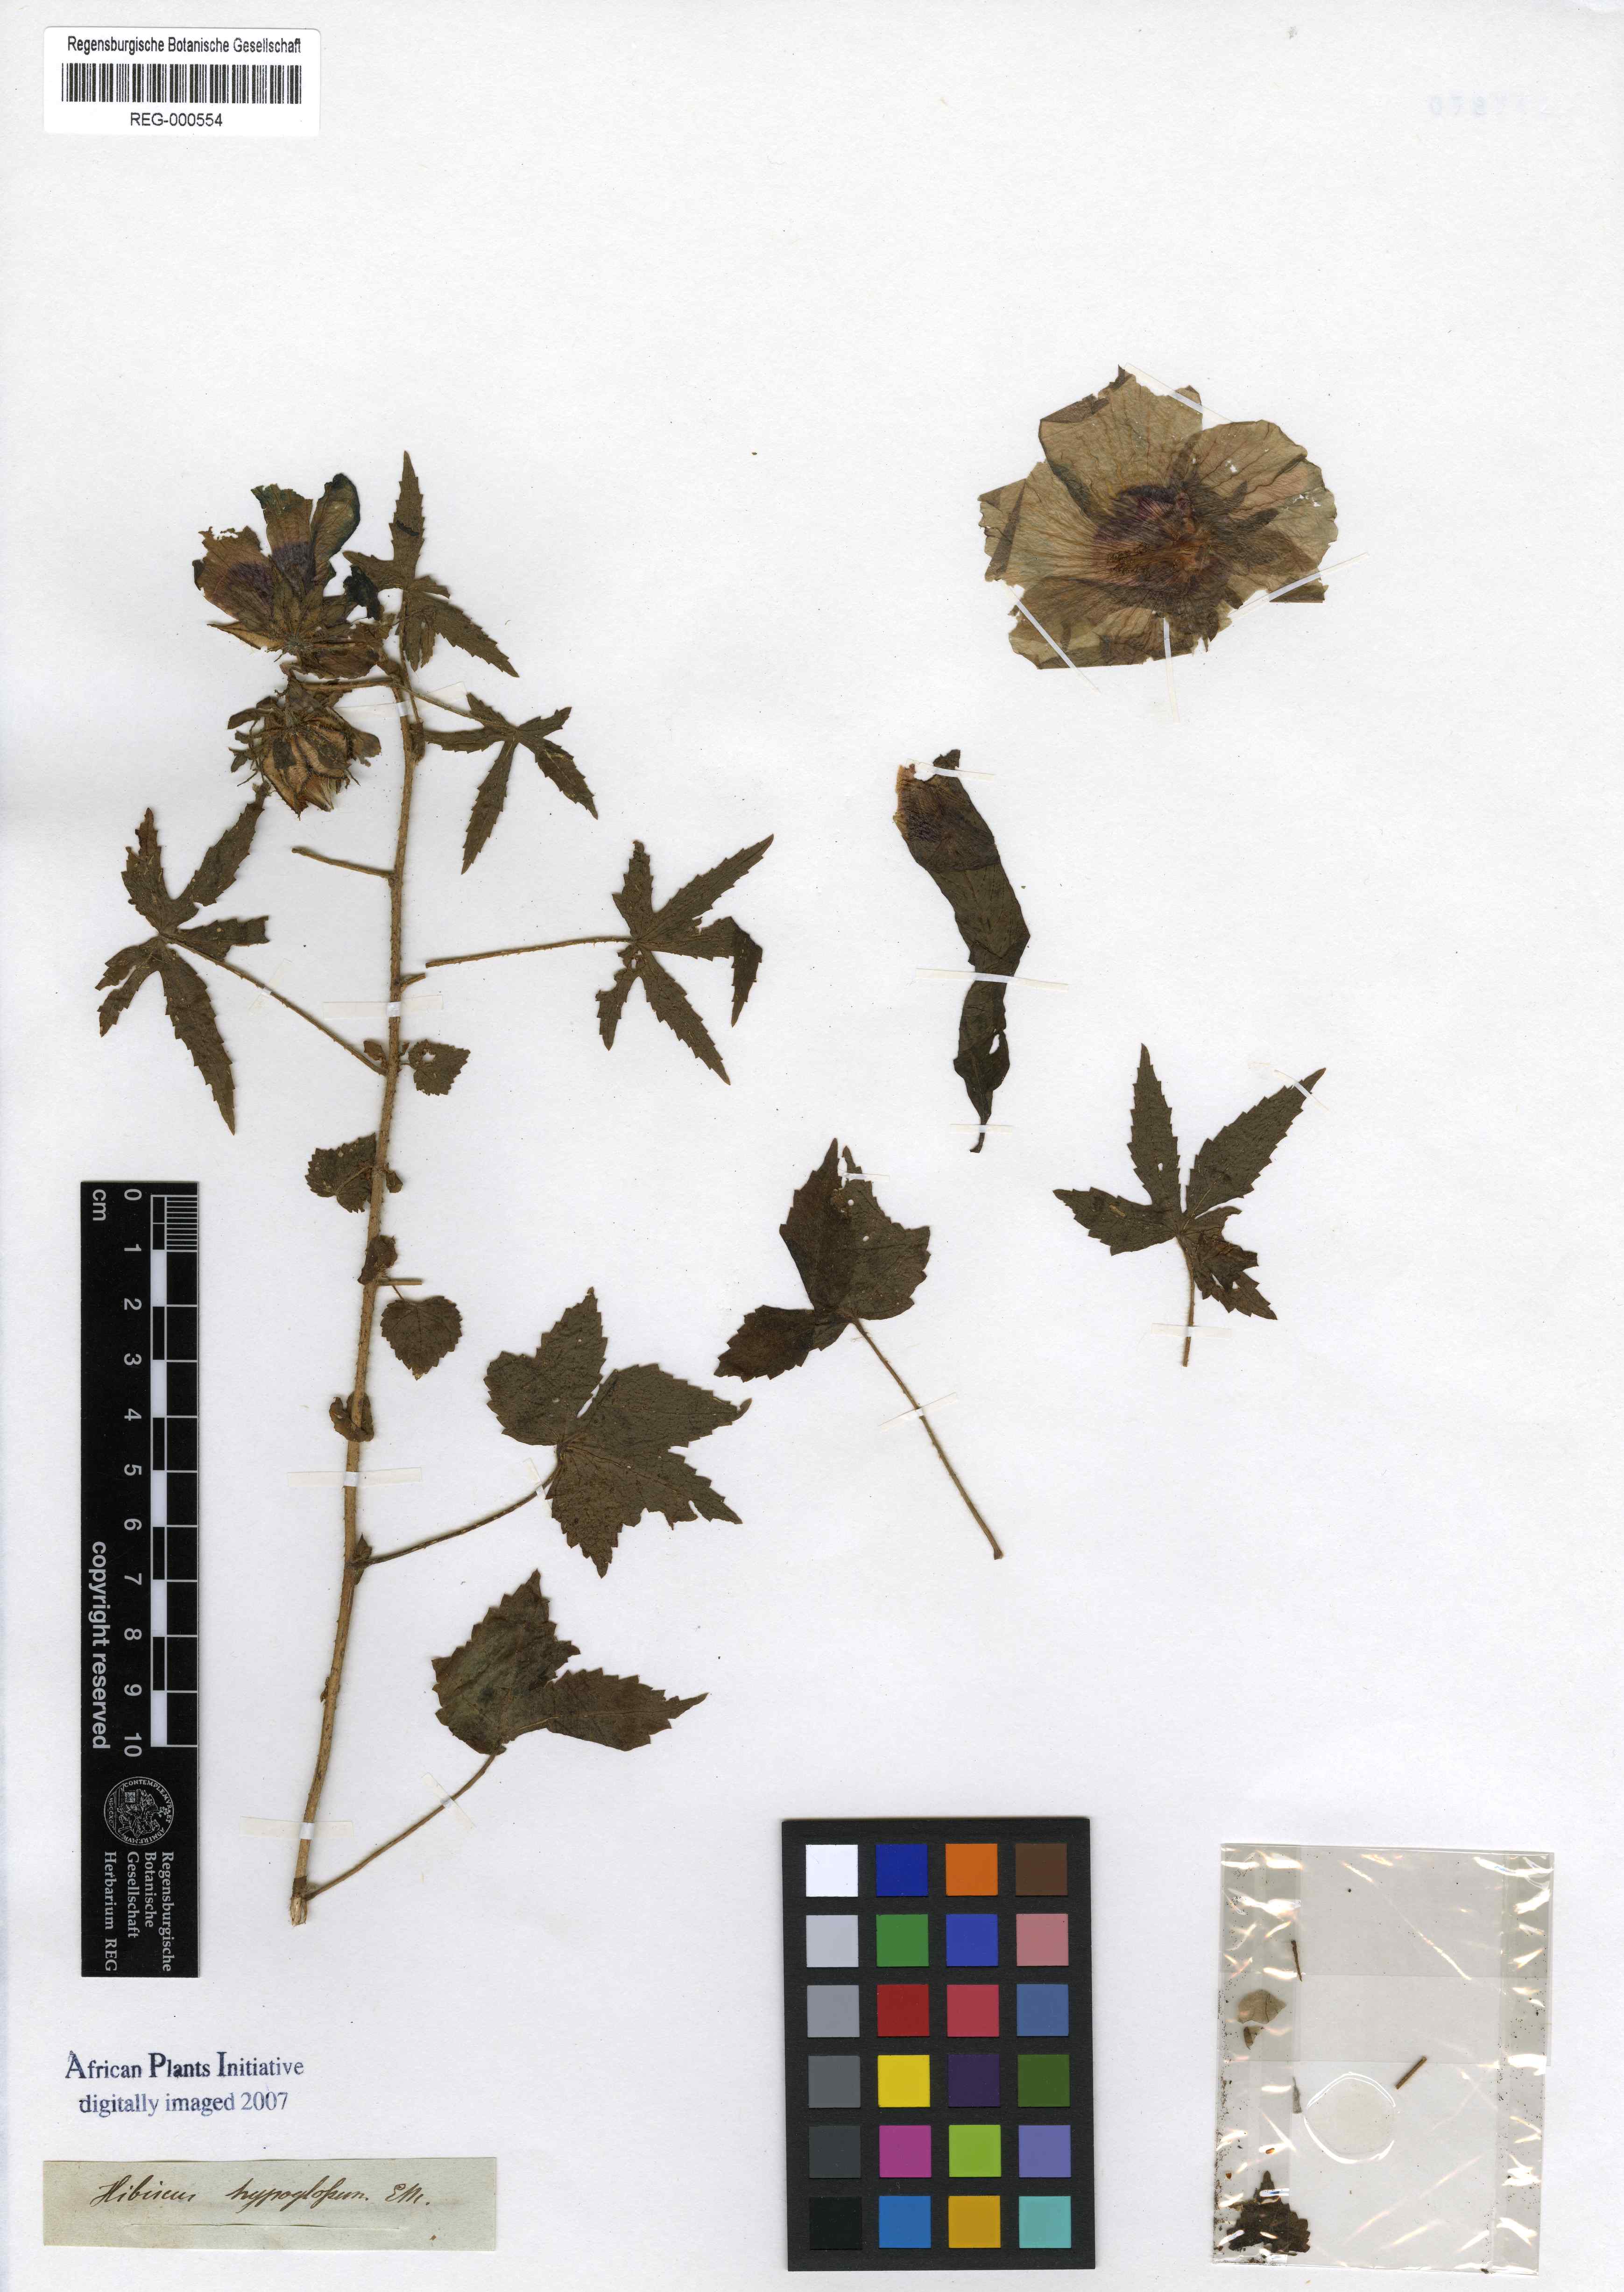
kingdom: Plantae
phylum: Tracheophyta
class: Magnoliopsida
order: Malvales
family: Malvaceae
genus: Hibiscus
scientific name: Hibiscus surattensis
